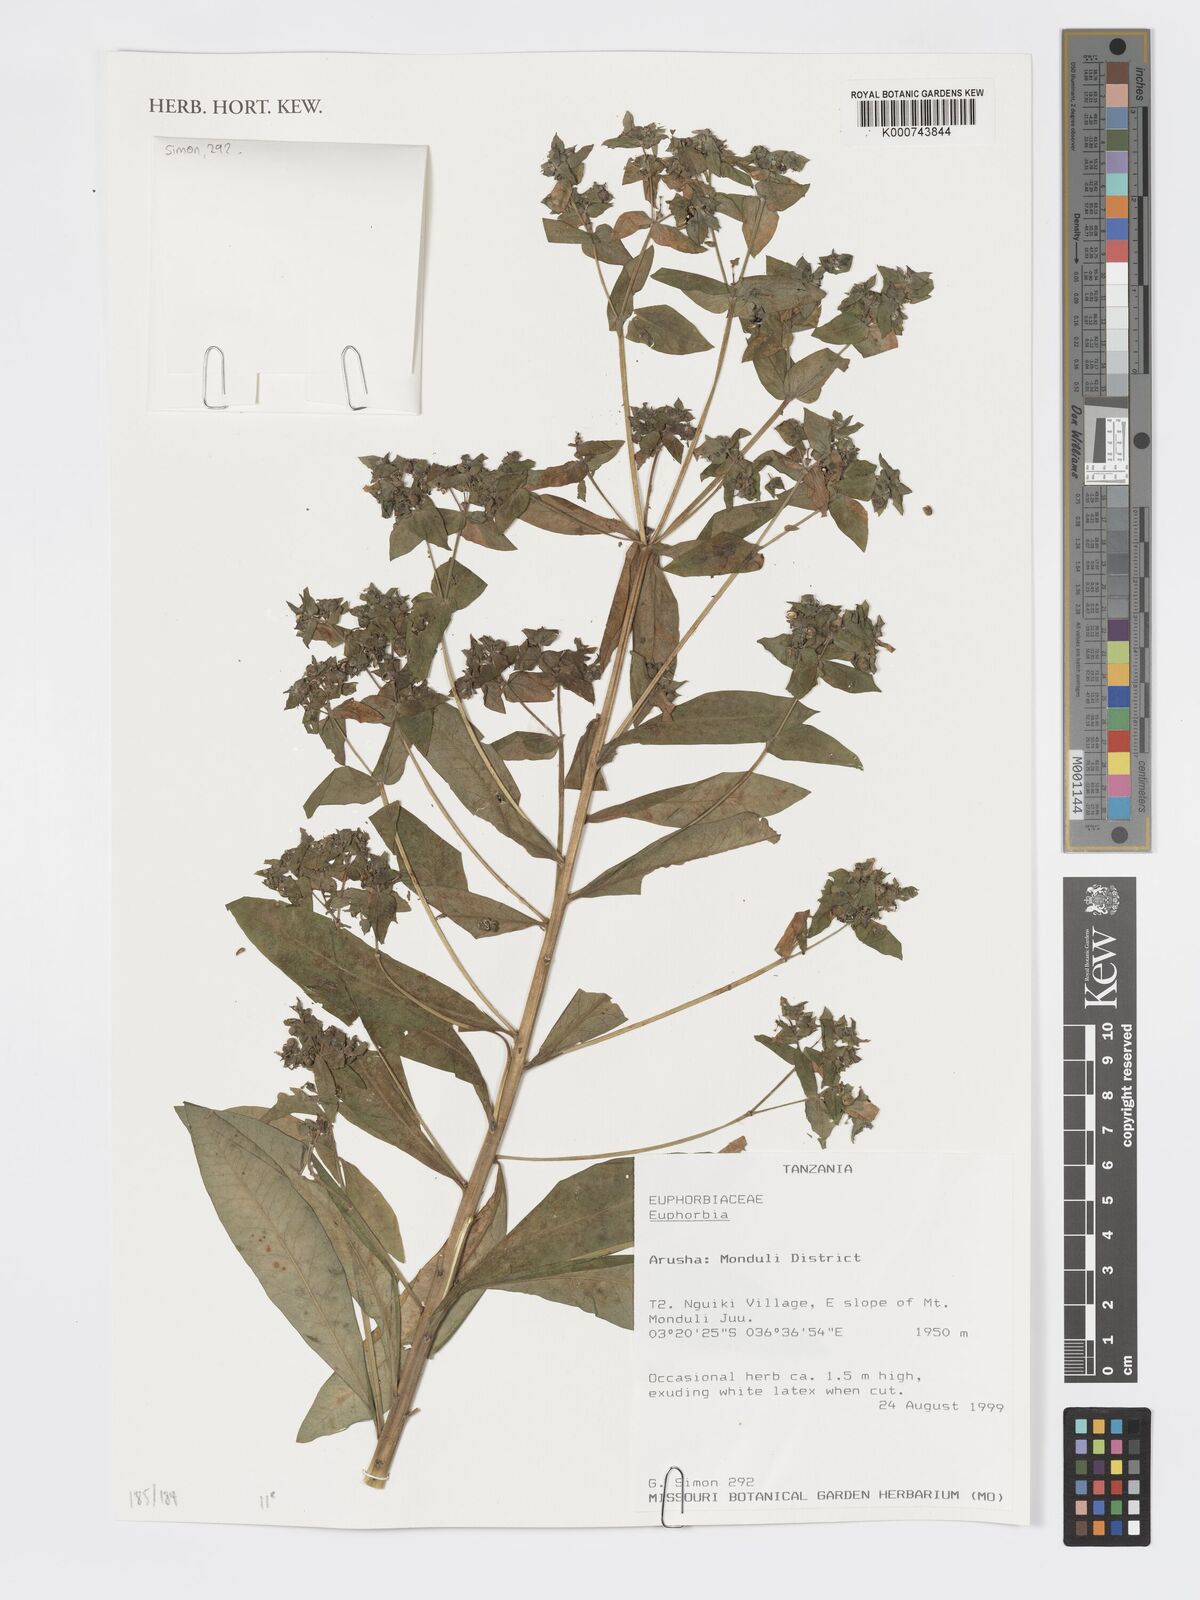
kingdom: Plantae
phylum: Tracheophyta
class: Magnoliopsida
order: Malpighiales
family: Euphorbiaceae
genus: Euphorbia
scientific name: Euphorbia
